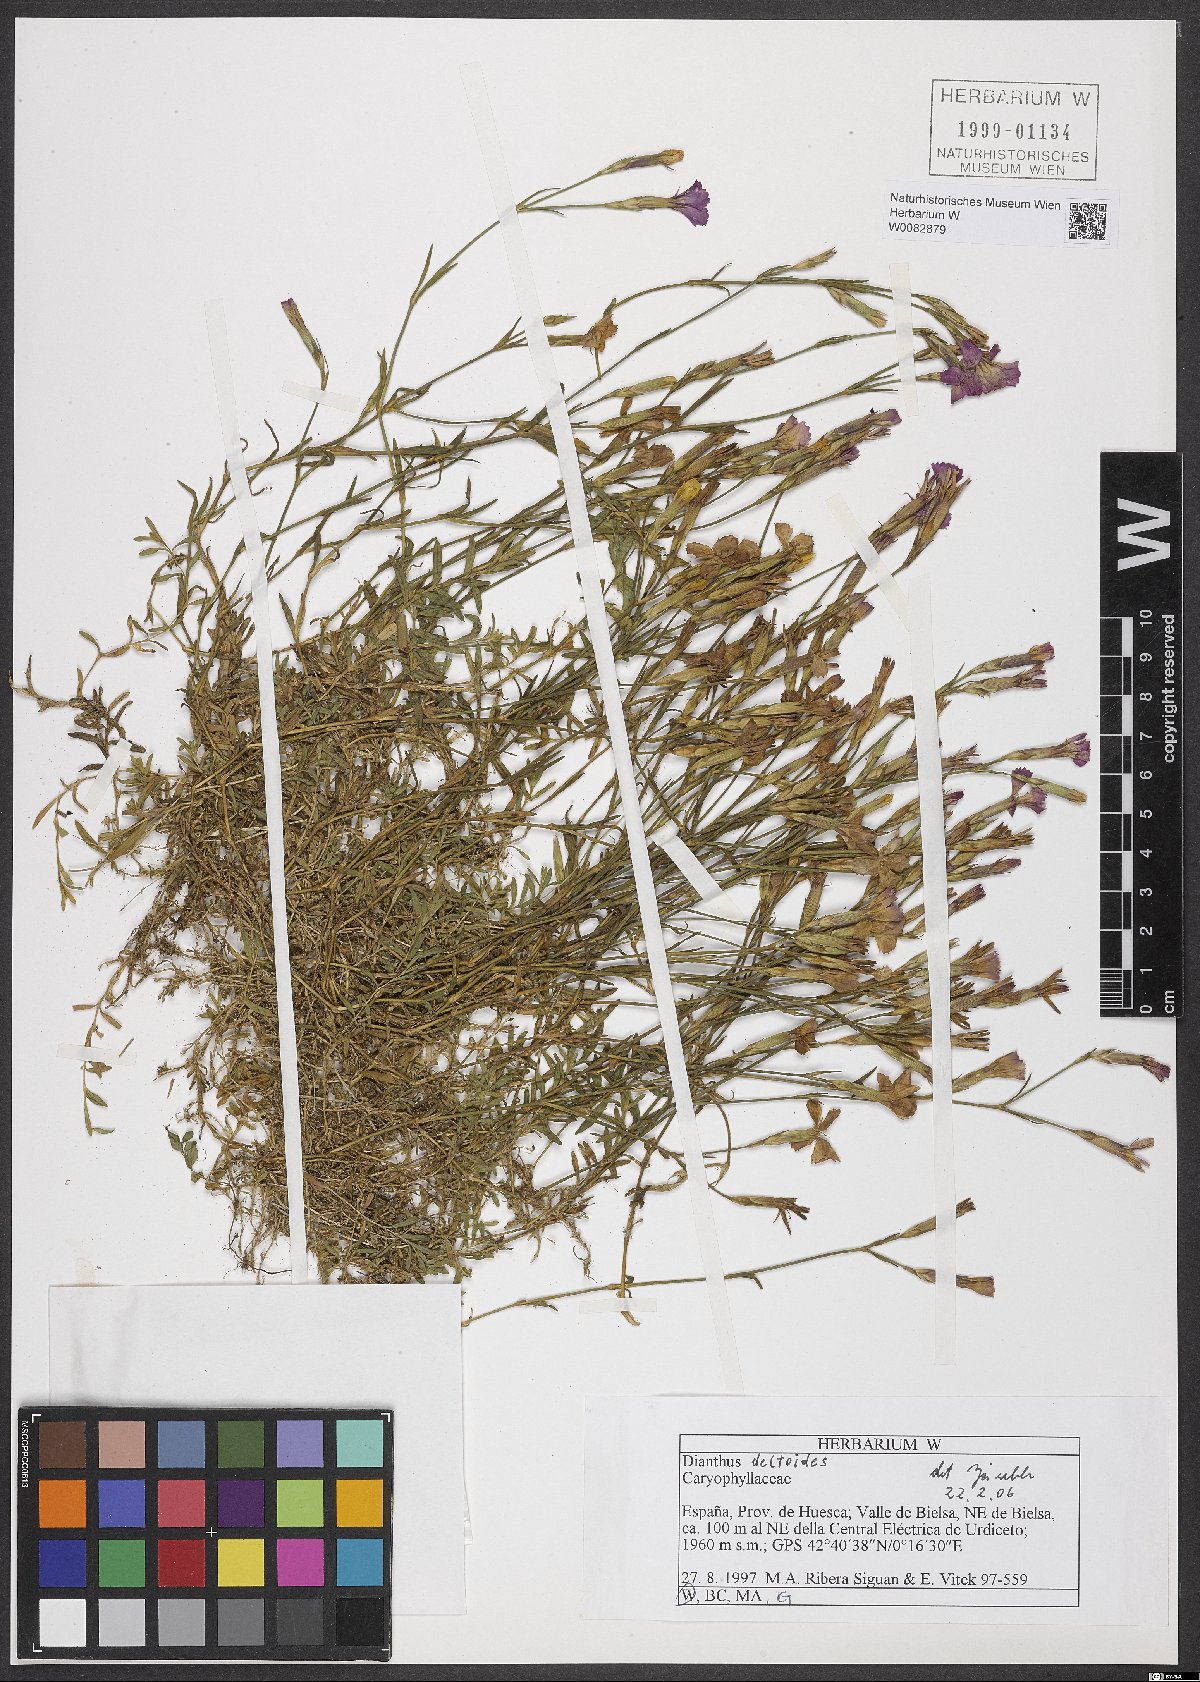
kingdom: Plantae
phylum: Tracheophyta
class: Magnoliopsida
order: Caryophyllales
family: Caryophyllaceae
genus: Dianthus
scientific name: Dianthus deltoides
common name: Maiden pink
